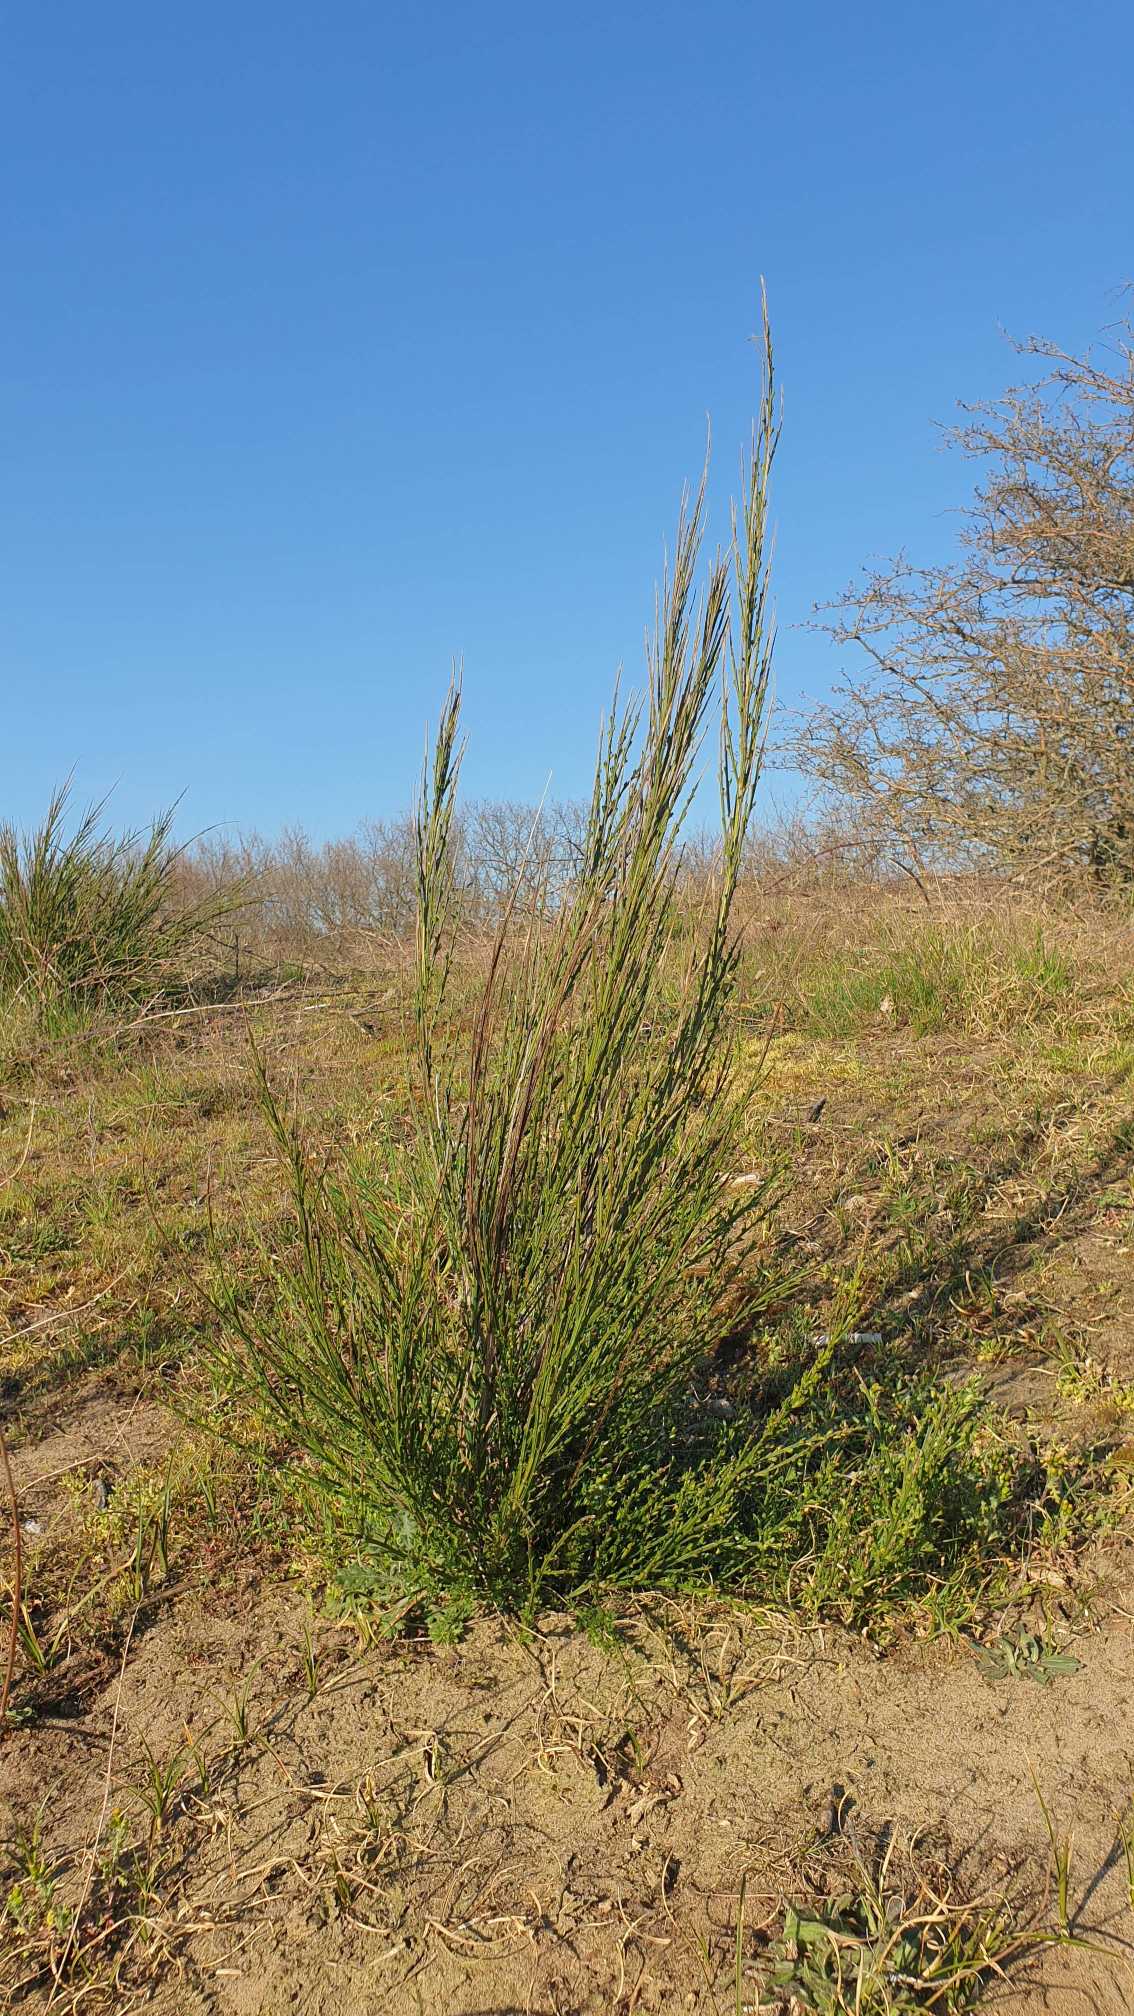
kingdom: Plantae
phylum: Tracheophyta
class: Magnoliopsida
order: Fabales
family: Fabaceae
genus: Cytisus
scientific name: Cytisus scoparius
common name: Almindelig gyvel
